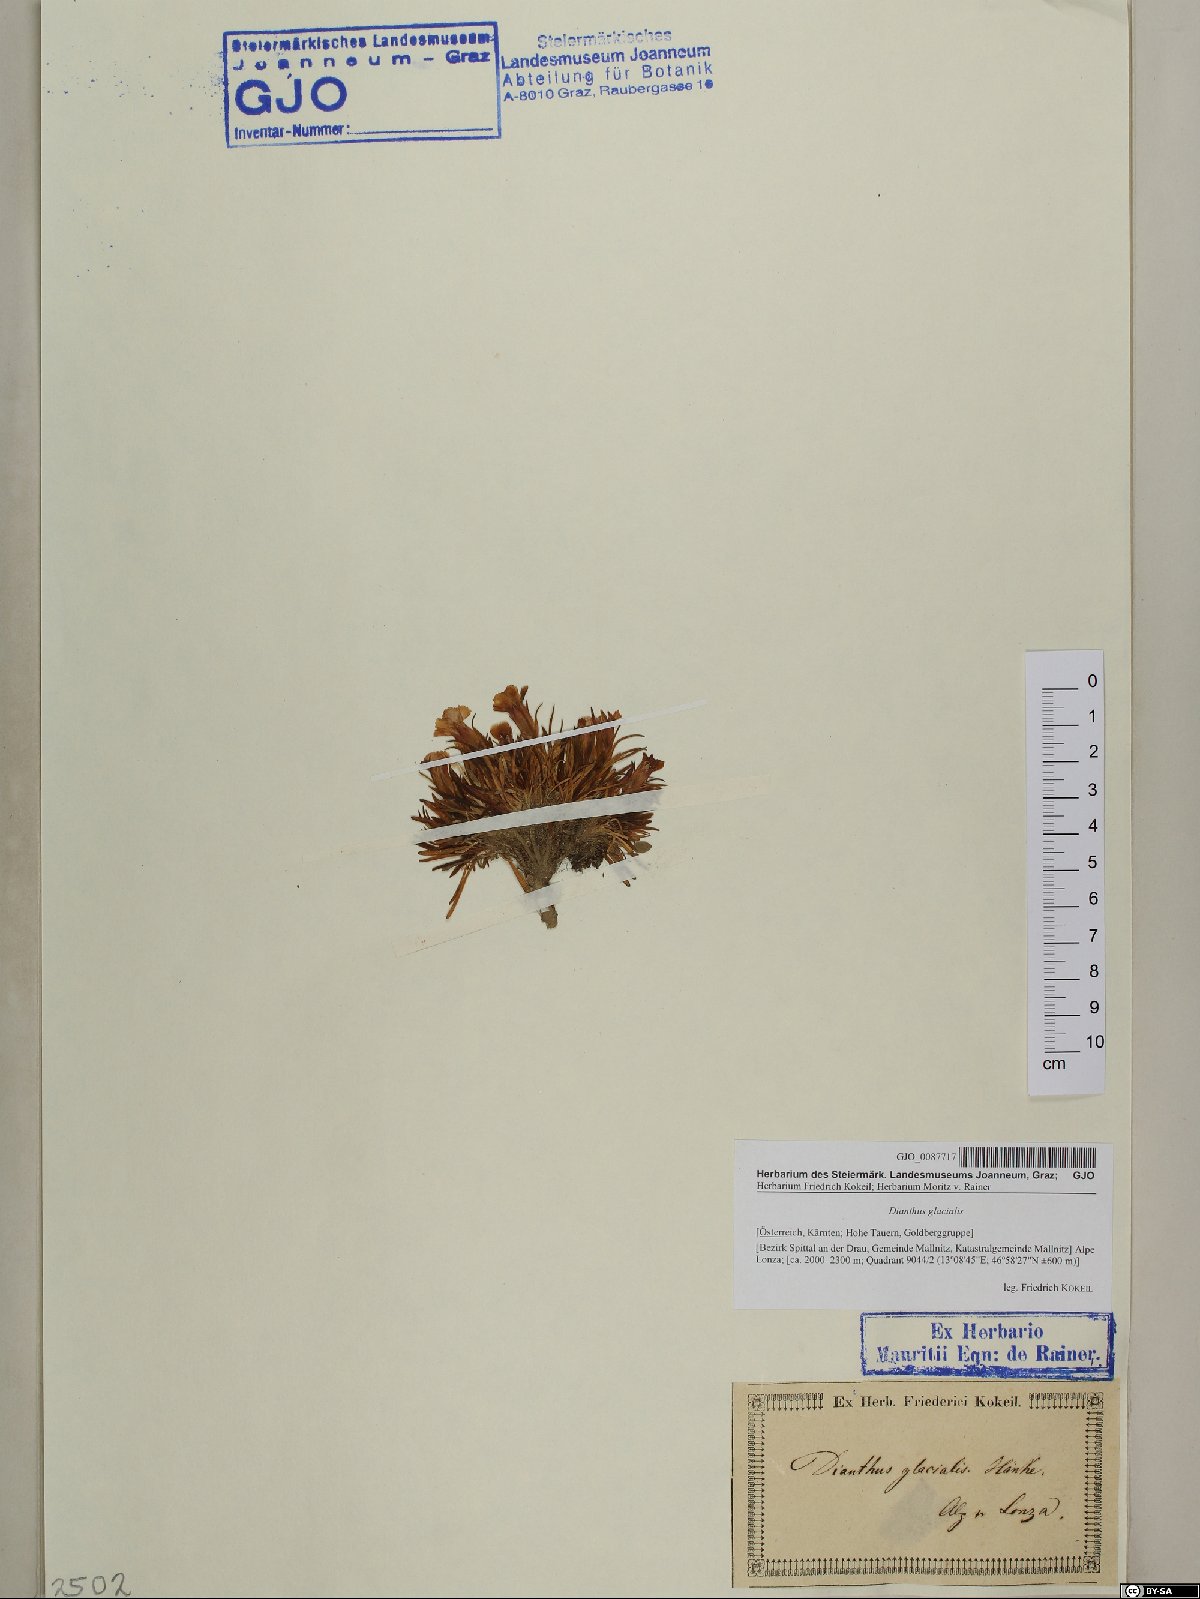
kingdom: Plantae
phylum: Tracheophyta
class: Magnoliopsida
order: Caryophyllales
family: Caryophyllaceae
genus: Dianthus
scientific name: Dianthus glacialis
